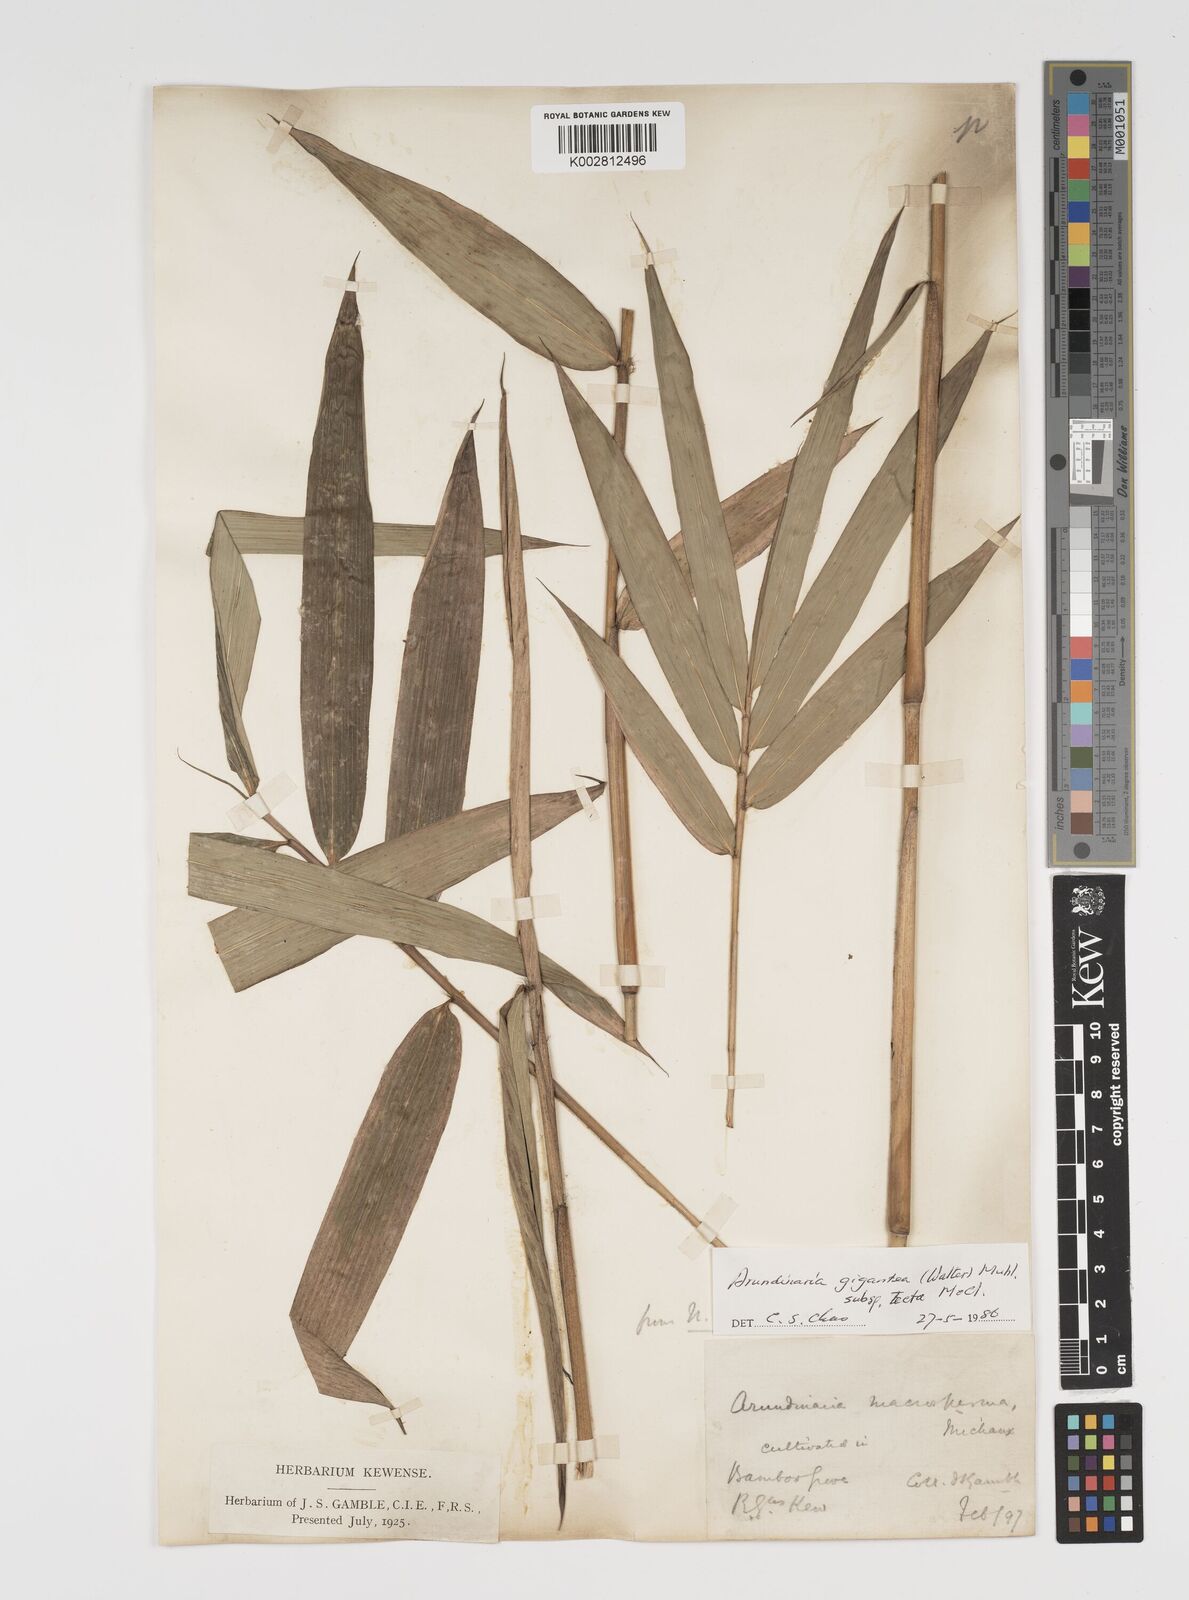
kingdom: Plantae
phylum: Tracheophyta
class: Liliopsida
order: Poales
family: Poaceae
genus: Pseudosasa
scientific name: Pseudosasa amabilis
